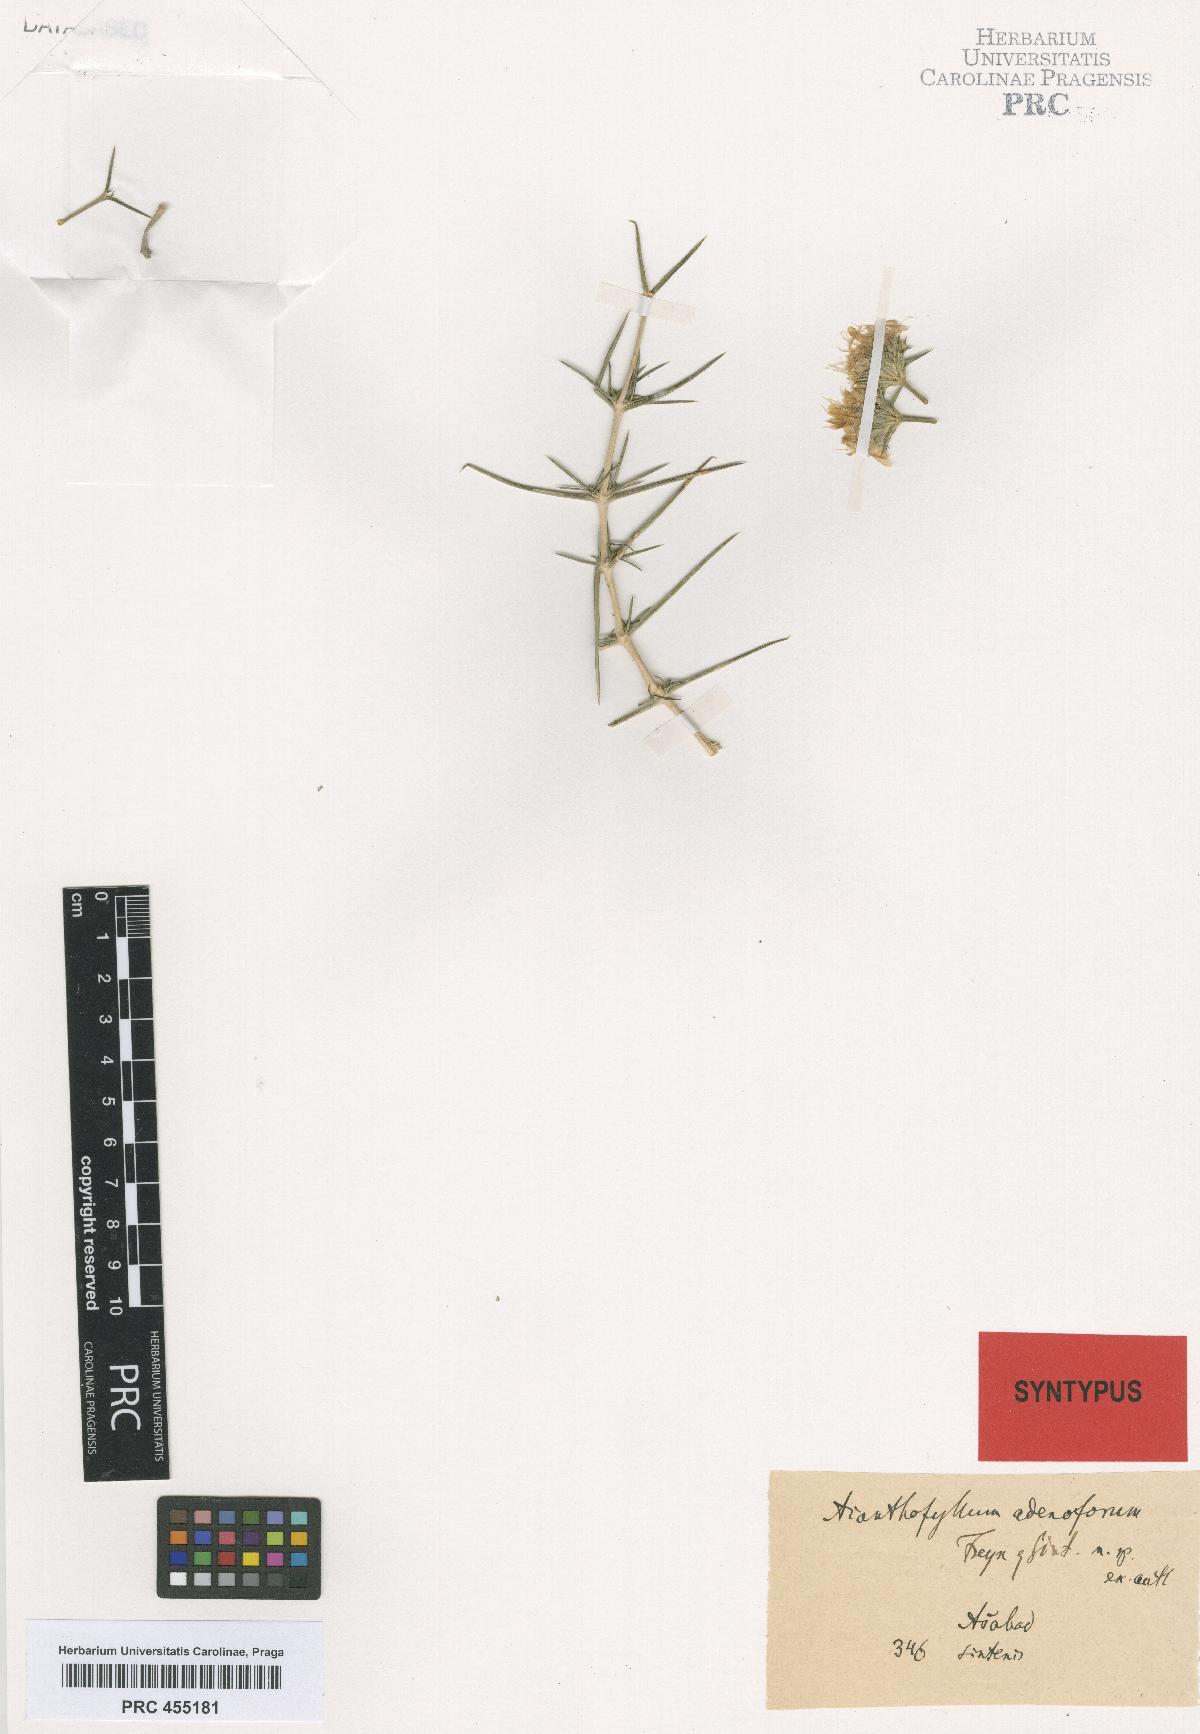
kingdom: Plantae
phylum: Tracheophyta
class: Magnoliopsida
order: Caryophyllales
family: Caryophyllaceae
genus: Acanthophyllum
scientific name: Acanthophyllum adenophorum
